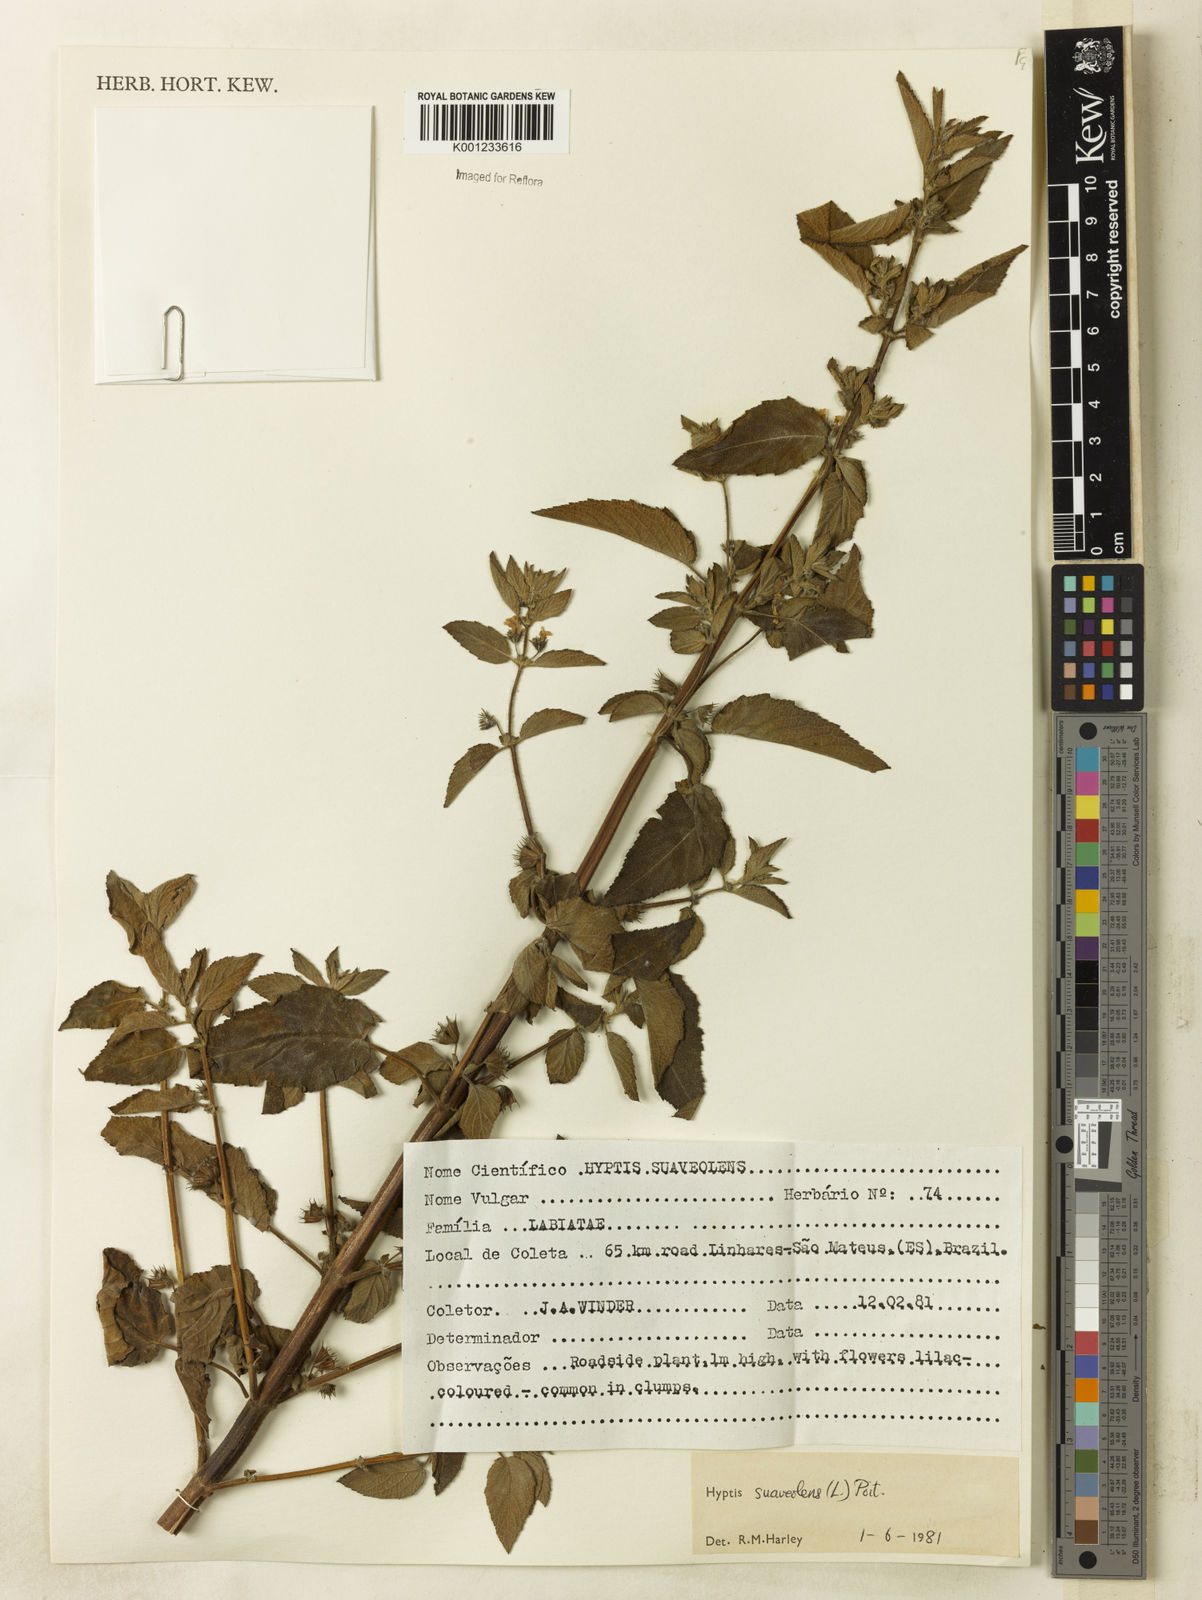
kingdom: Plantae
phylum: Tracheophyta
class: Magnoliopsida
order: Lamiales
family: Lamiaceae
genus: Mesosphaerum
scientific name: Mesosphaerum suaveolens
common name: Pignut
